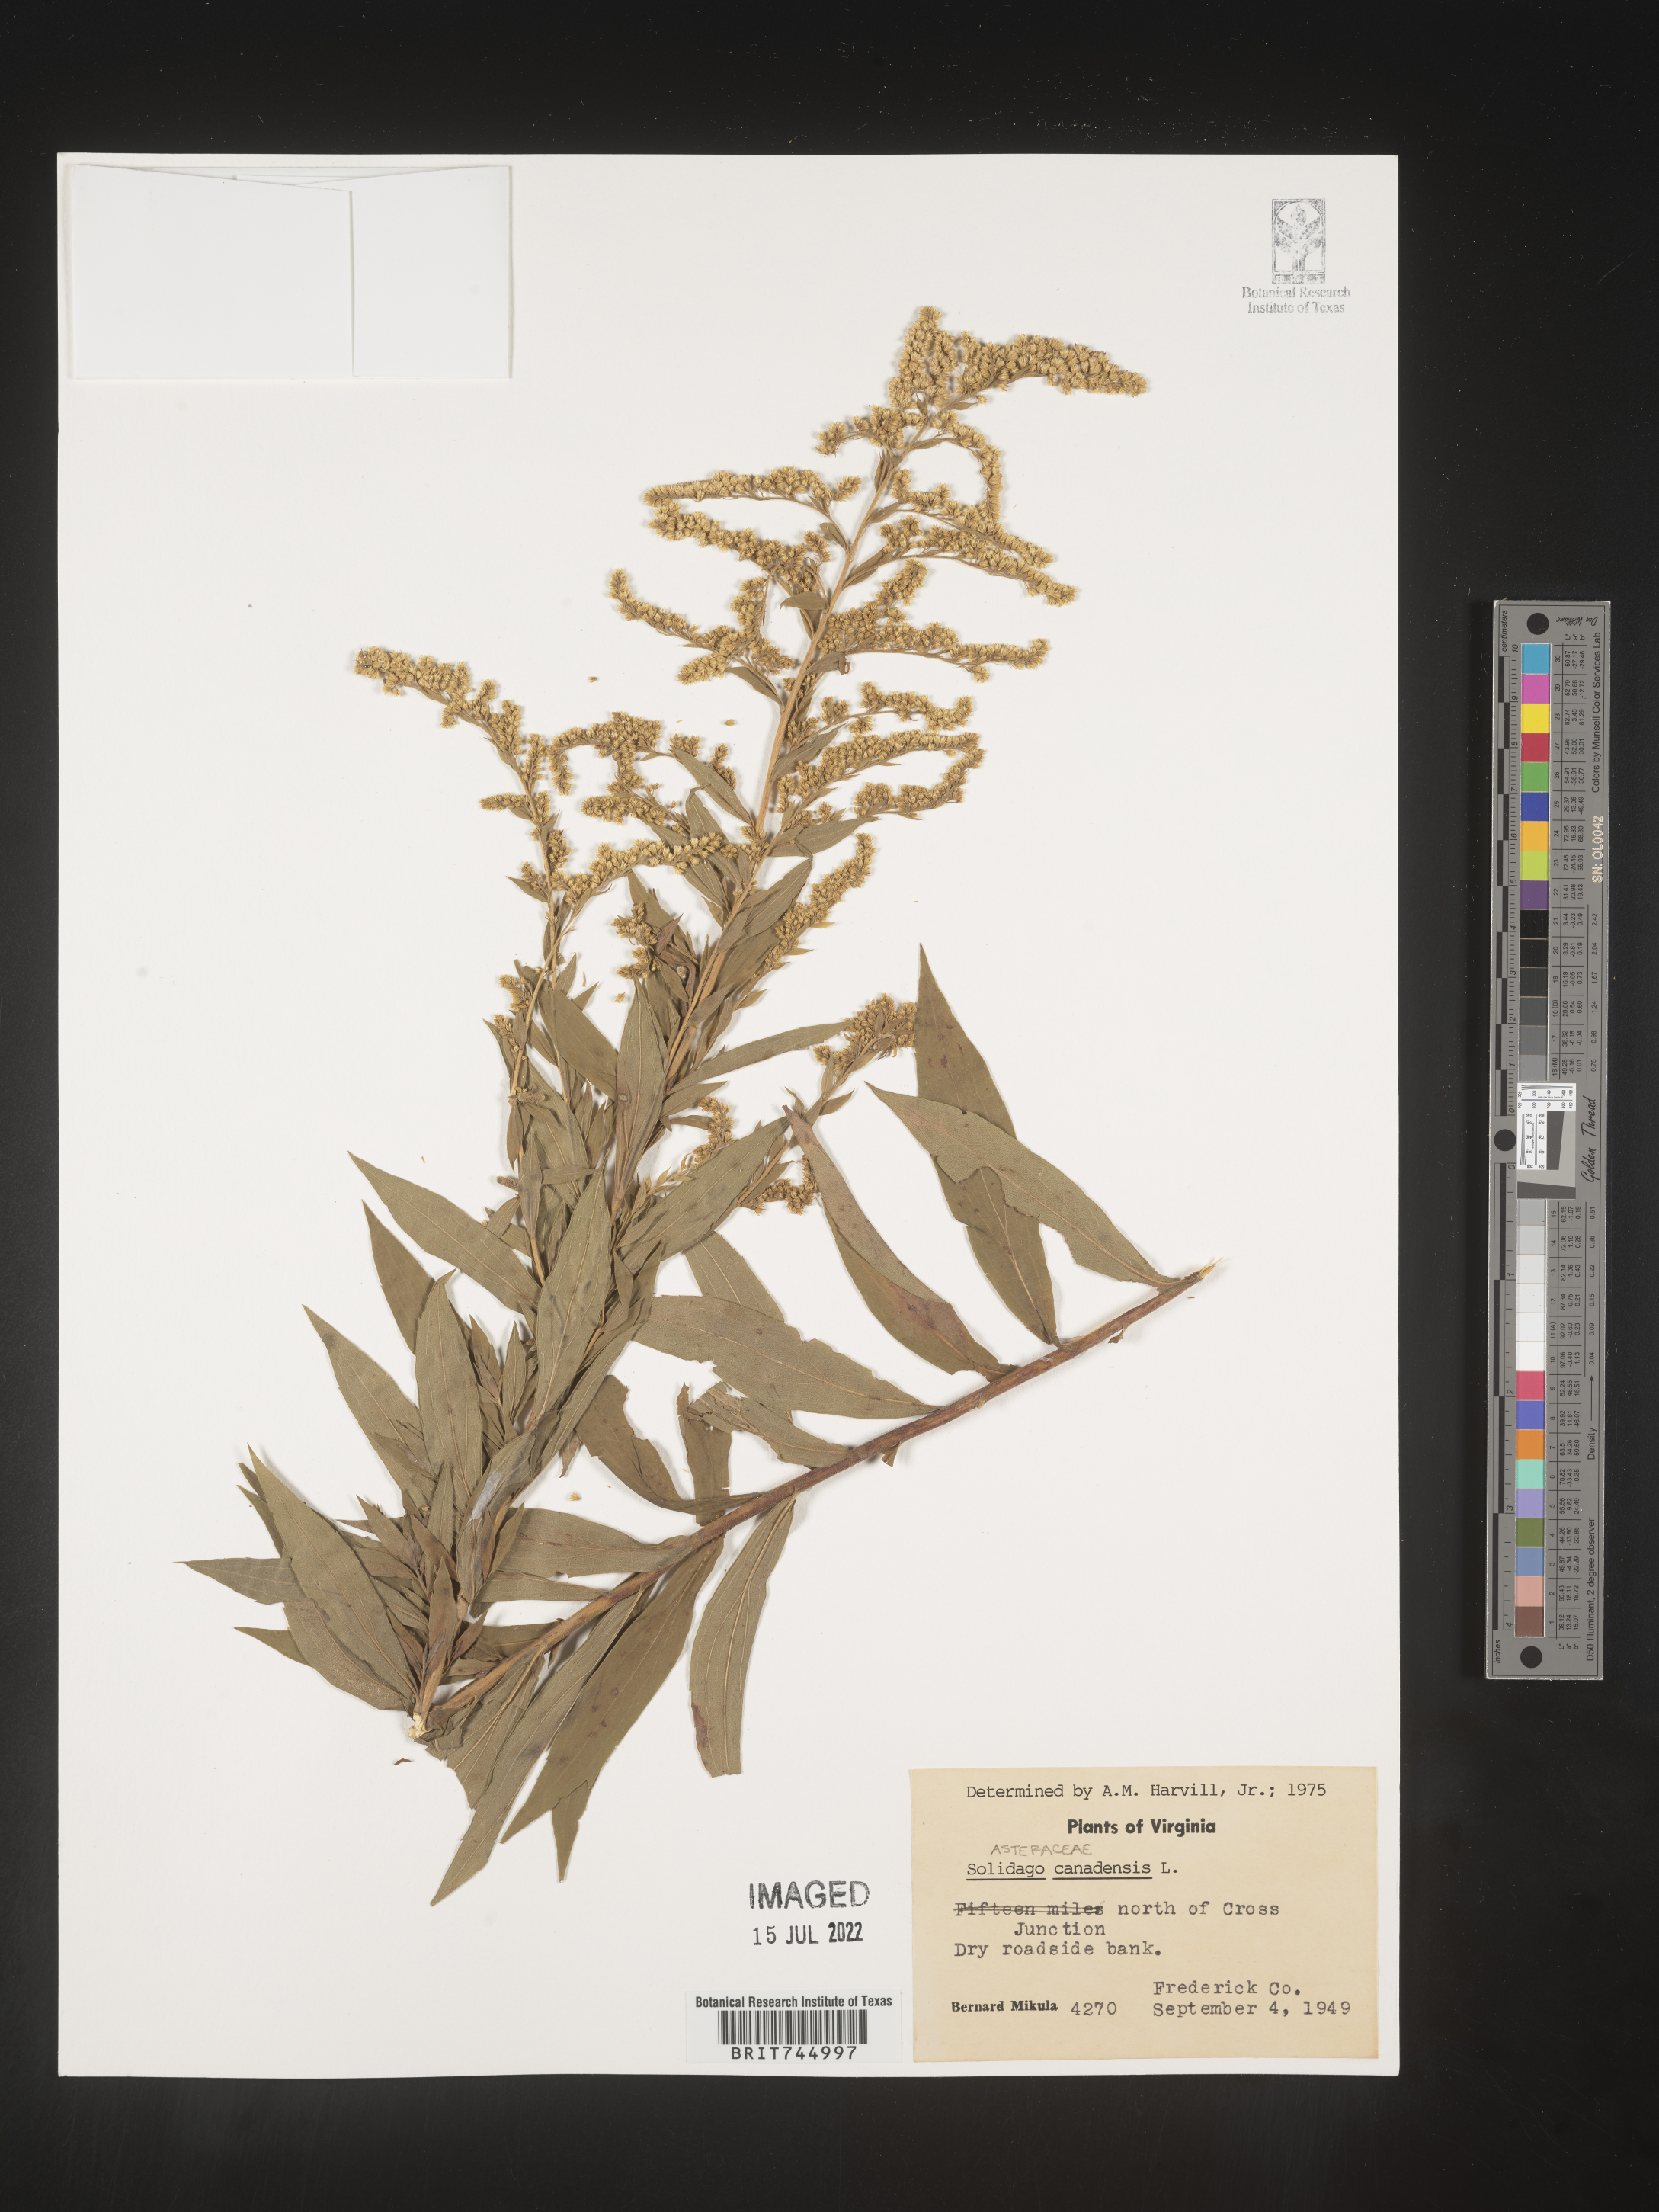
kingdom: Plantae
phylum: Tracheophyta
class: Magnoliopsida
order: Asterales
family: Asteraceae
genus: Solidago
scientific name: Solidago canadensis
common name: Canada goldenrod
